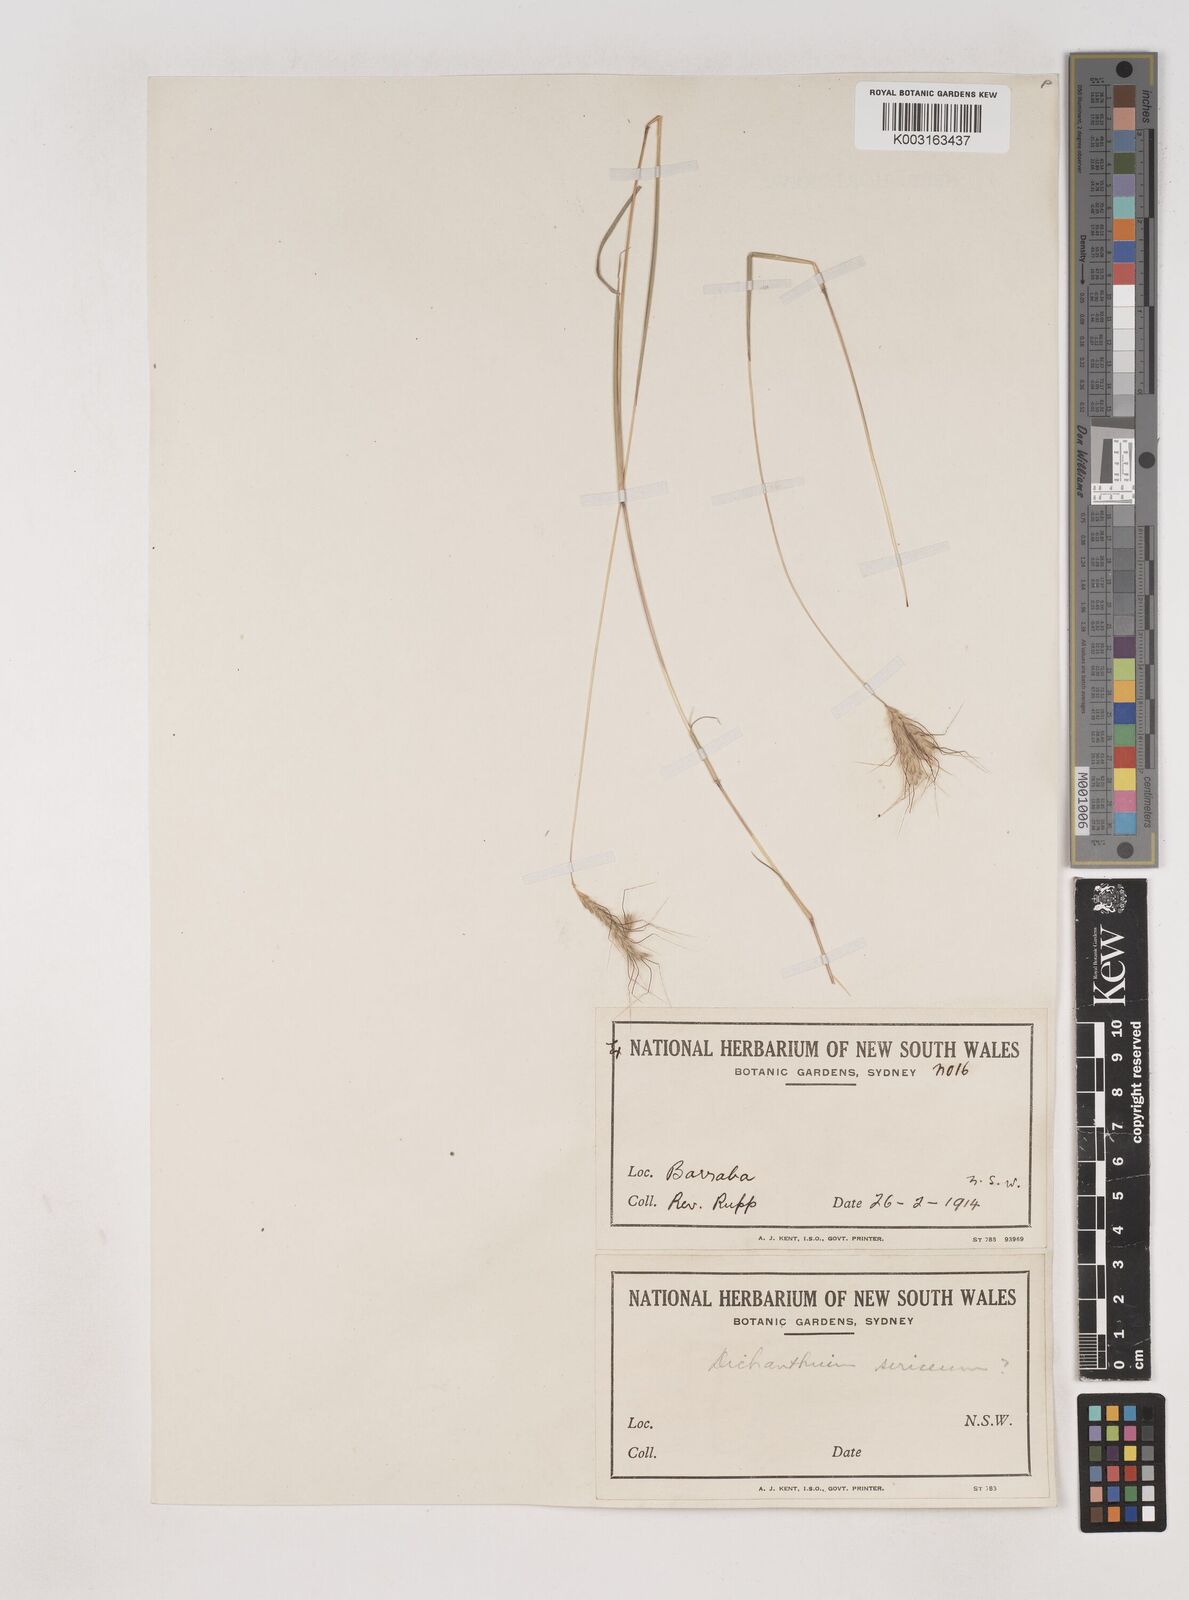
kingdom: Plantae
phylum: Tracheophyta
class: Liliopsida
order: Poales
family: Poaceae
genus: Dichanthium
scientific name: Dichanthium sericeum
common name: Silky bluestem
